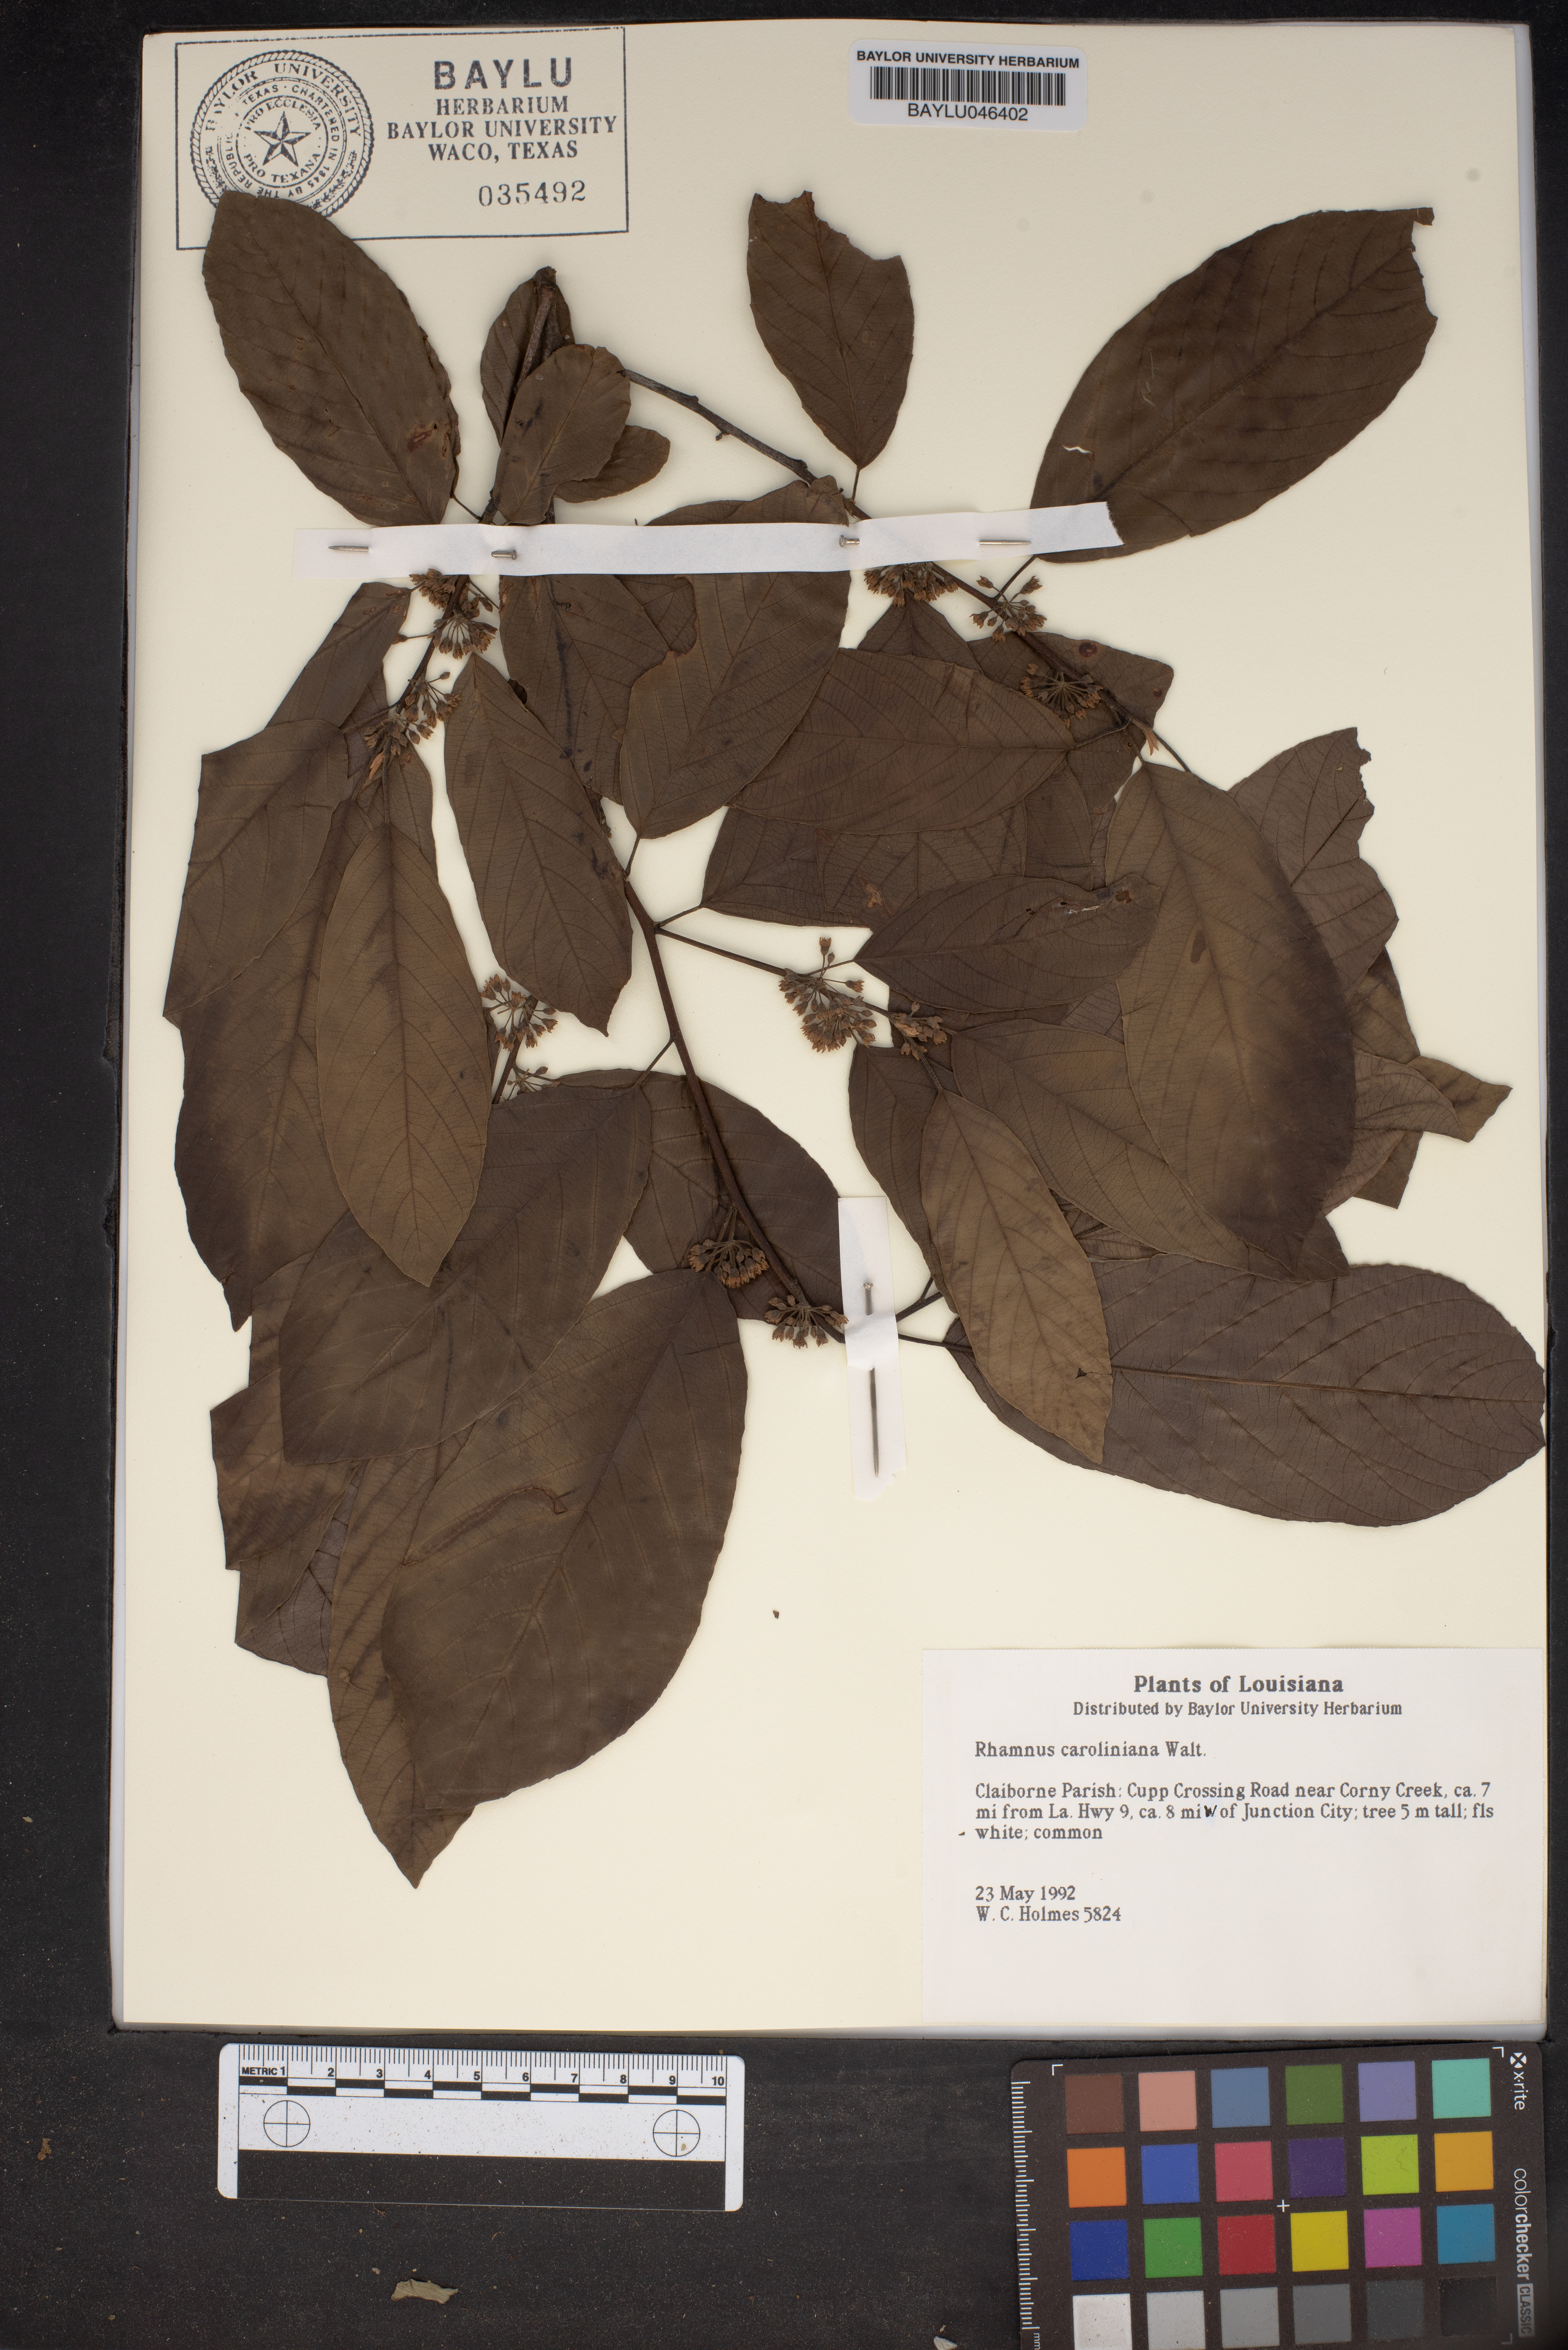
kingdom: Plantae
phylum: Tracheophyta
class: Magnoliopsida
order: Rosales
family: Rhamnaceae
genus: Frangula
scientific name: Frangula caroliniana
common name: Carolina buckthorn
